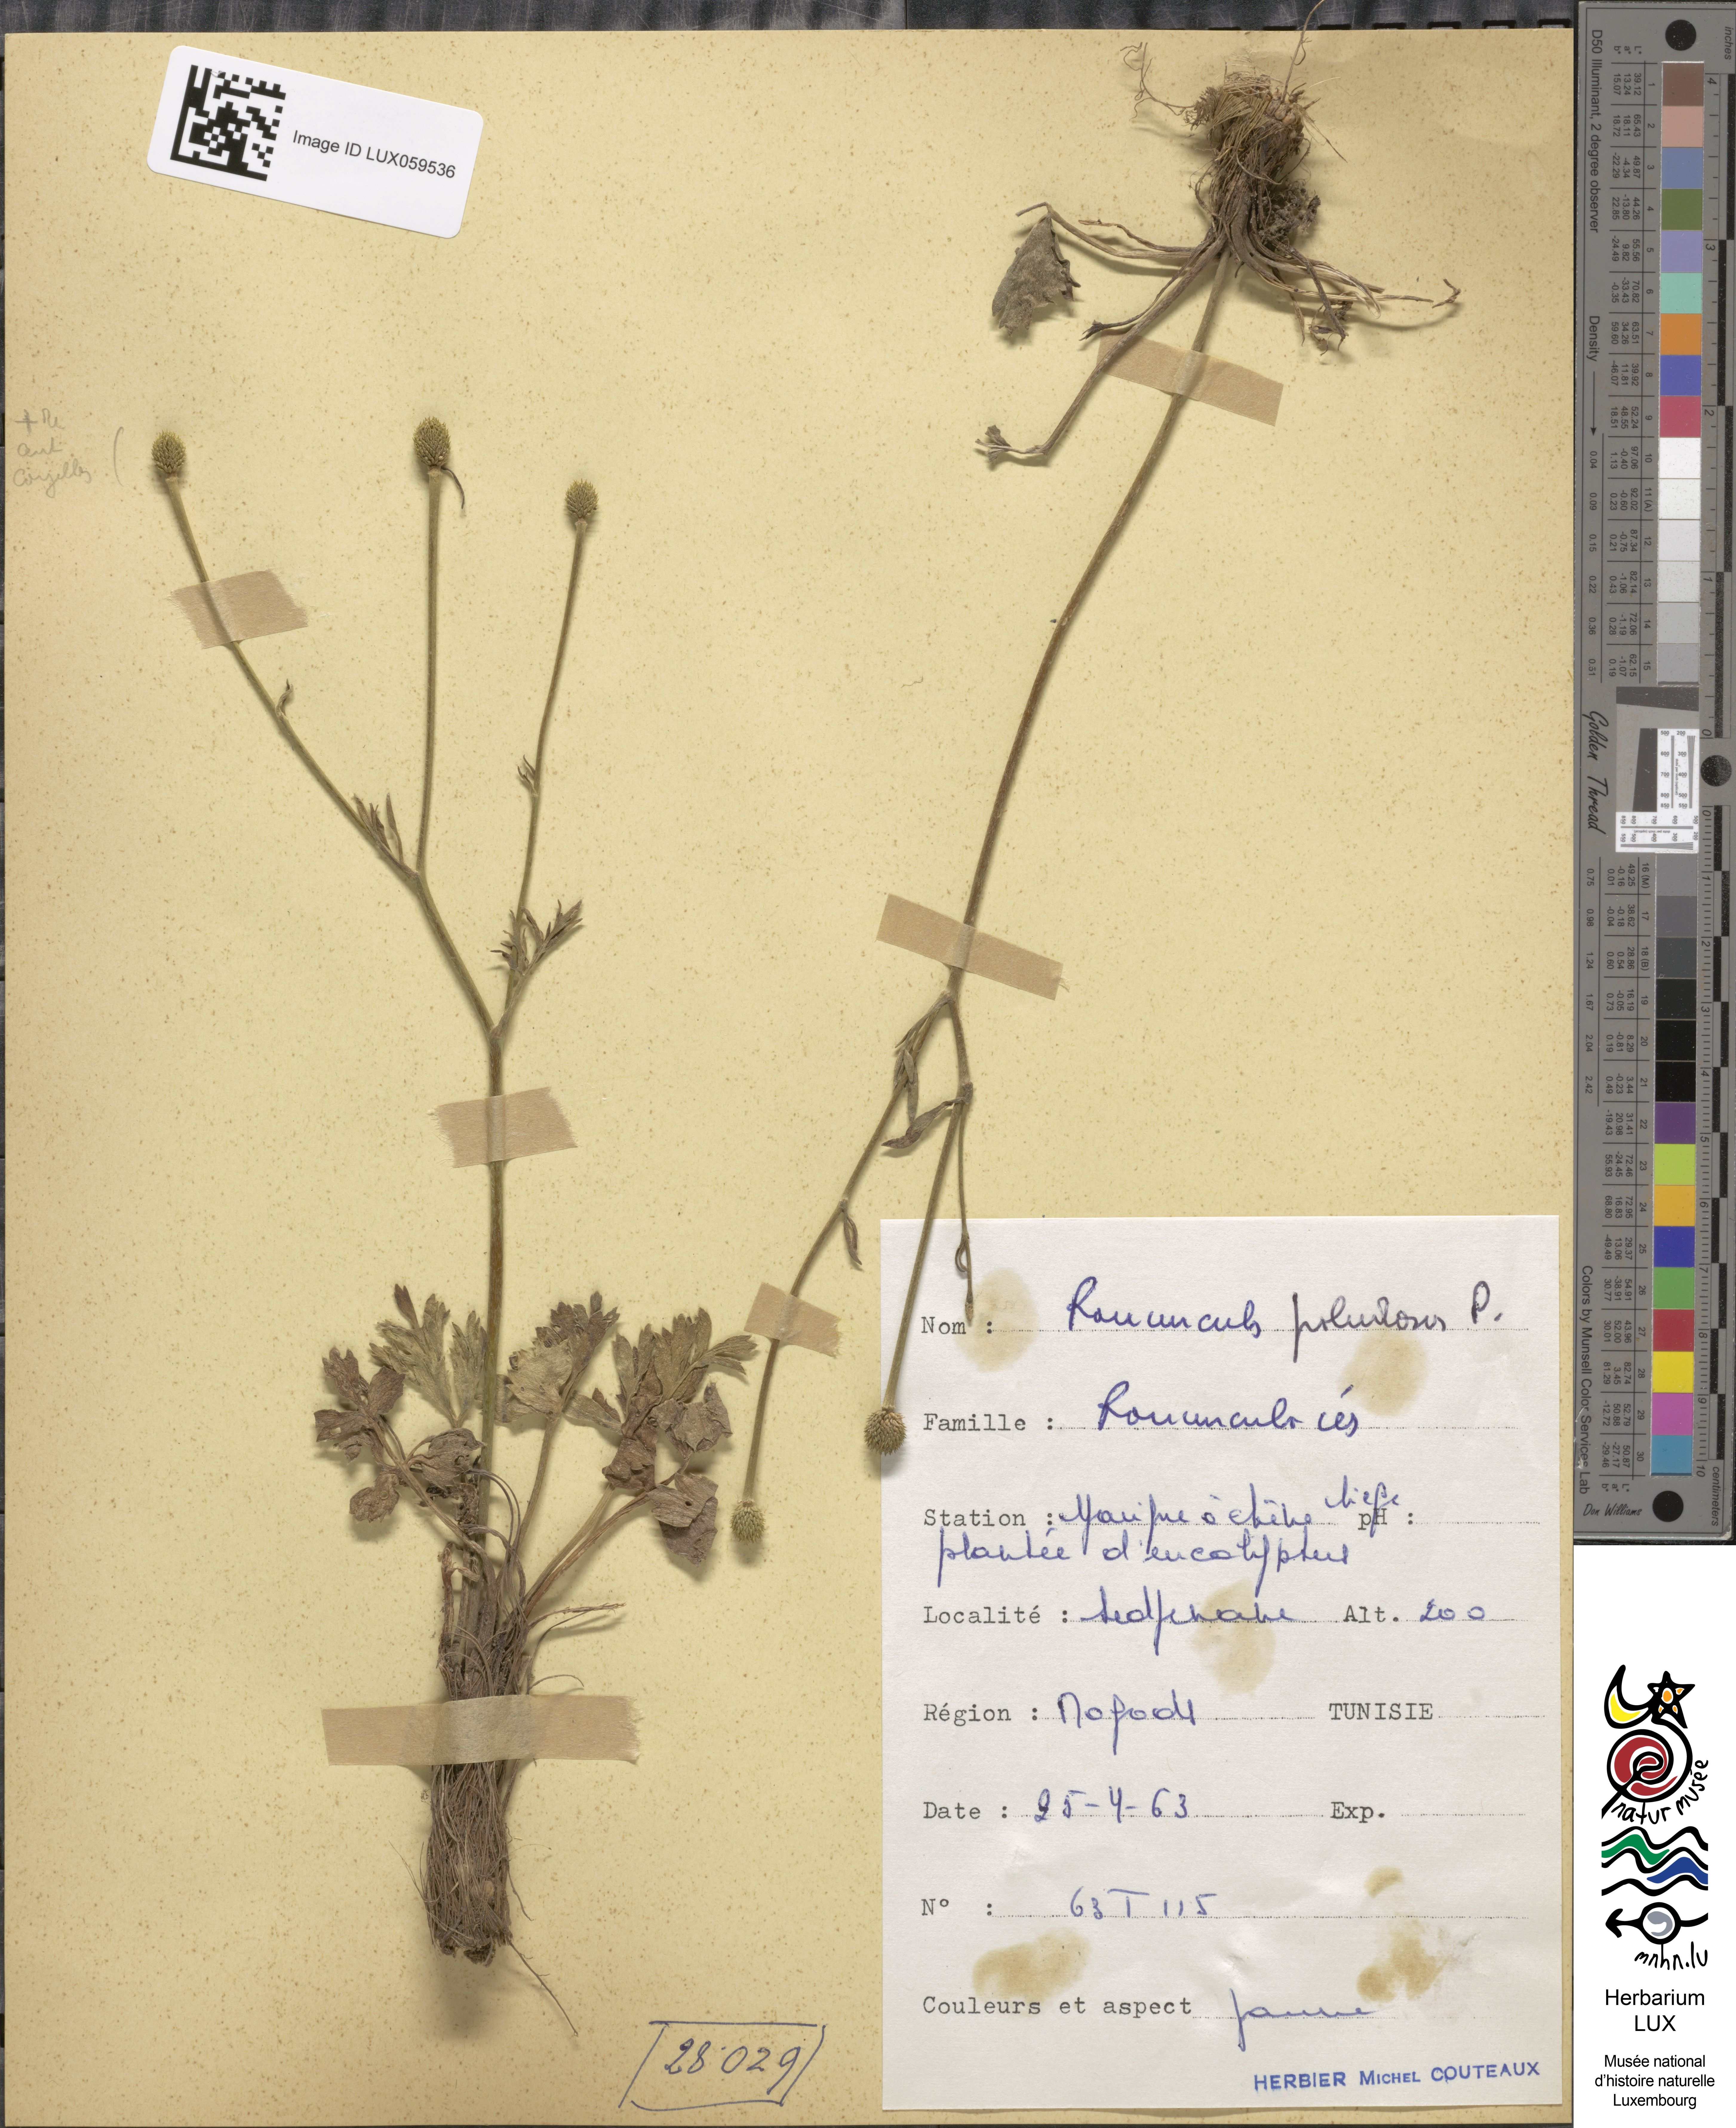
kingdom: Plantae
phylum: Tracheophyta
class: Magnoliopsida
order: Ranunculales
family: Ranunculaceae
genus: Ranunculus
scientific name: Ranunculus paludosus
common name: Jersey buttercup
